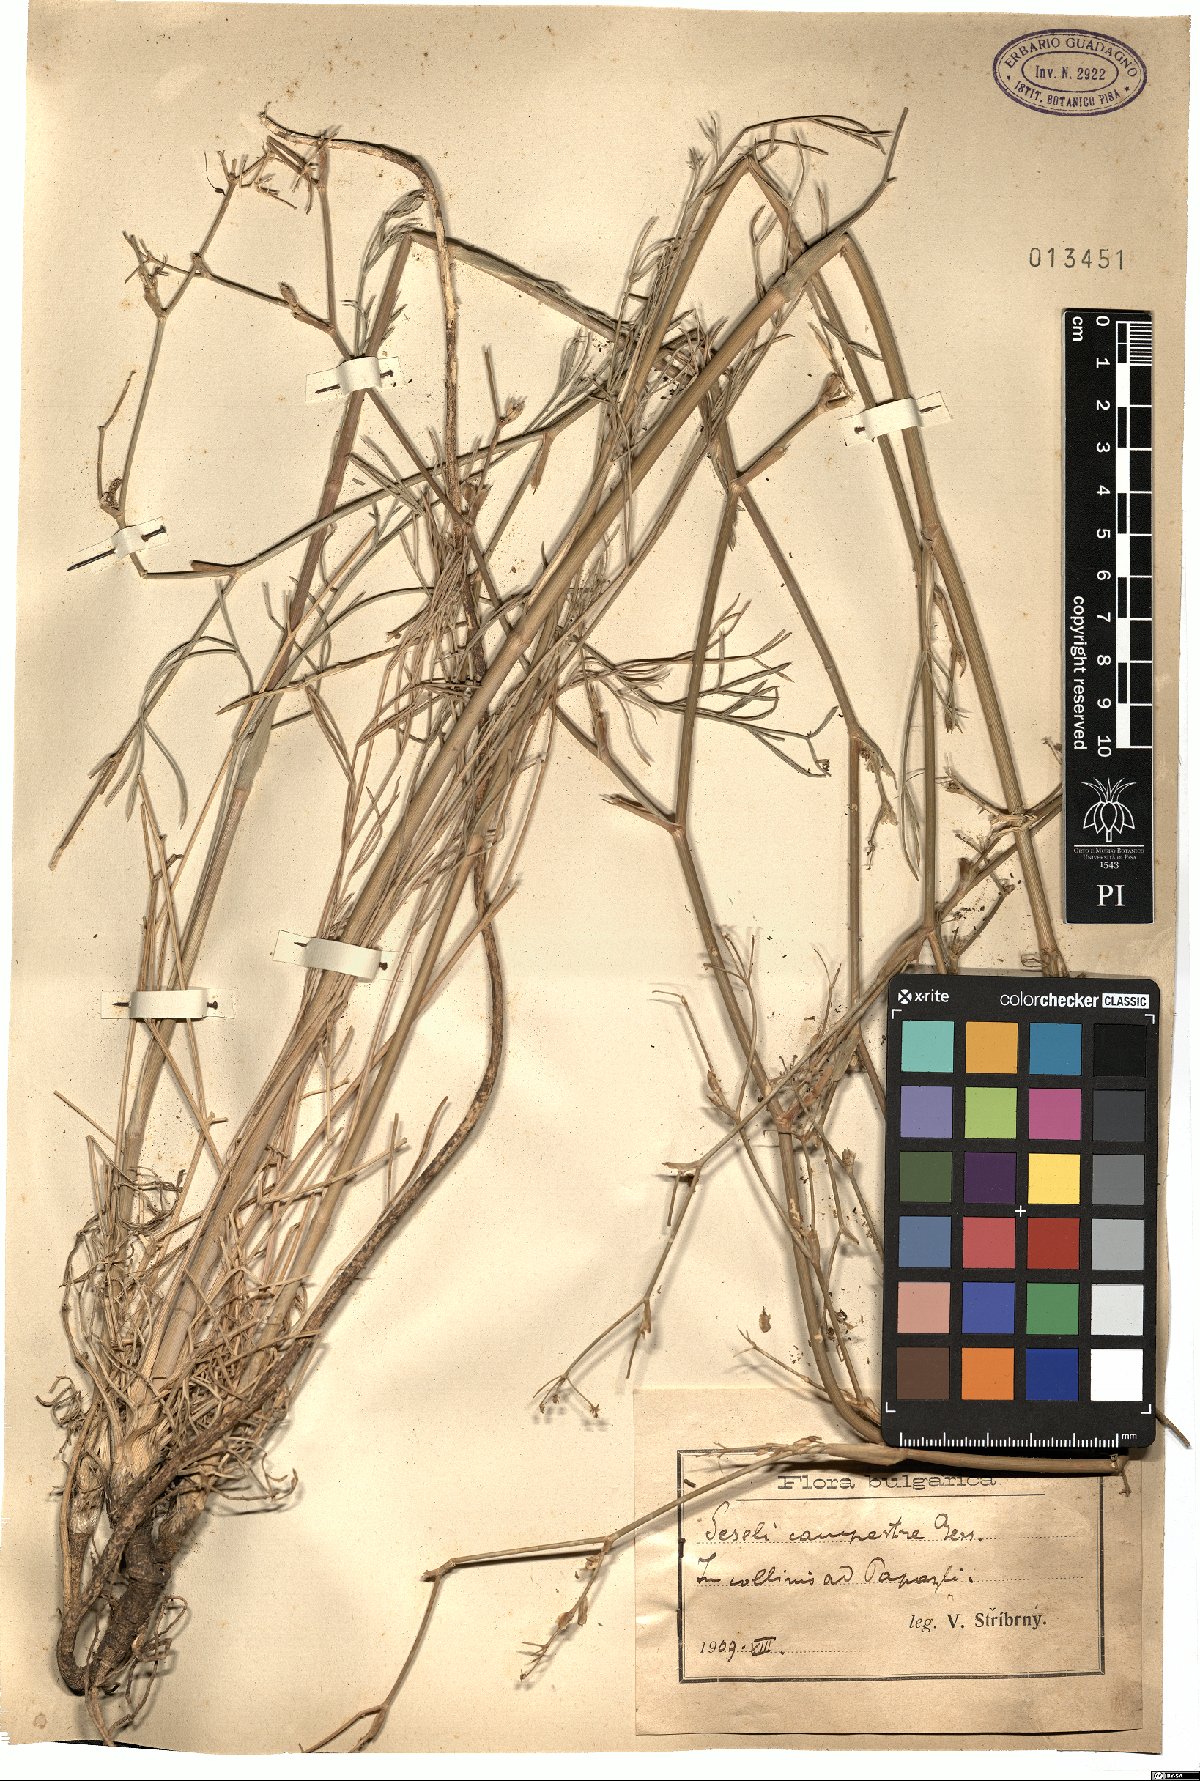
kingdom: Plantae
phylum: Tracheophyta
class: Magnoliopsida
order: Apiales
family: Apiaceae
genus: Seseli
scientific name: Seseli campestre
